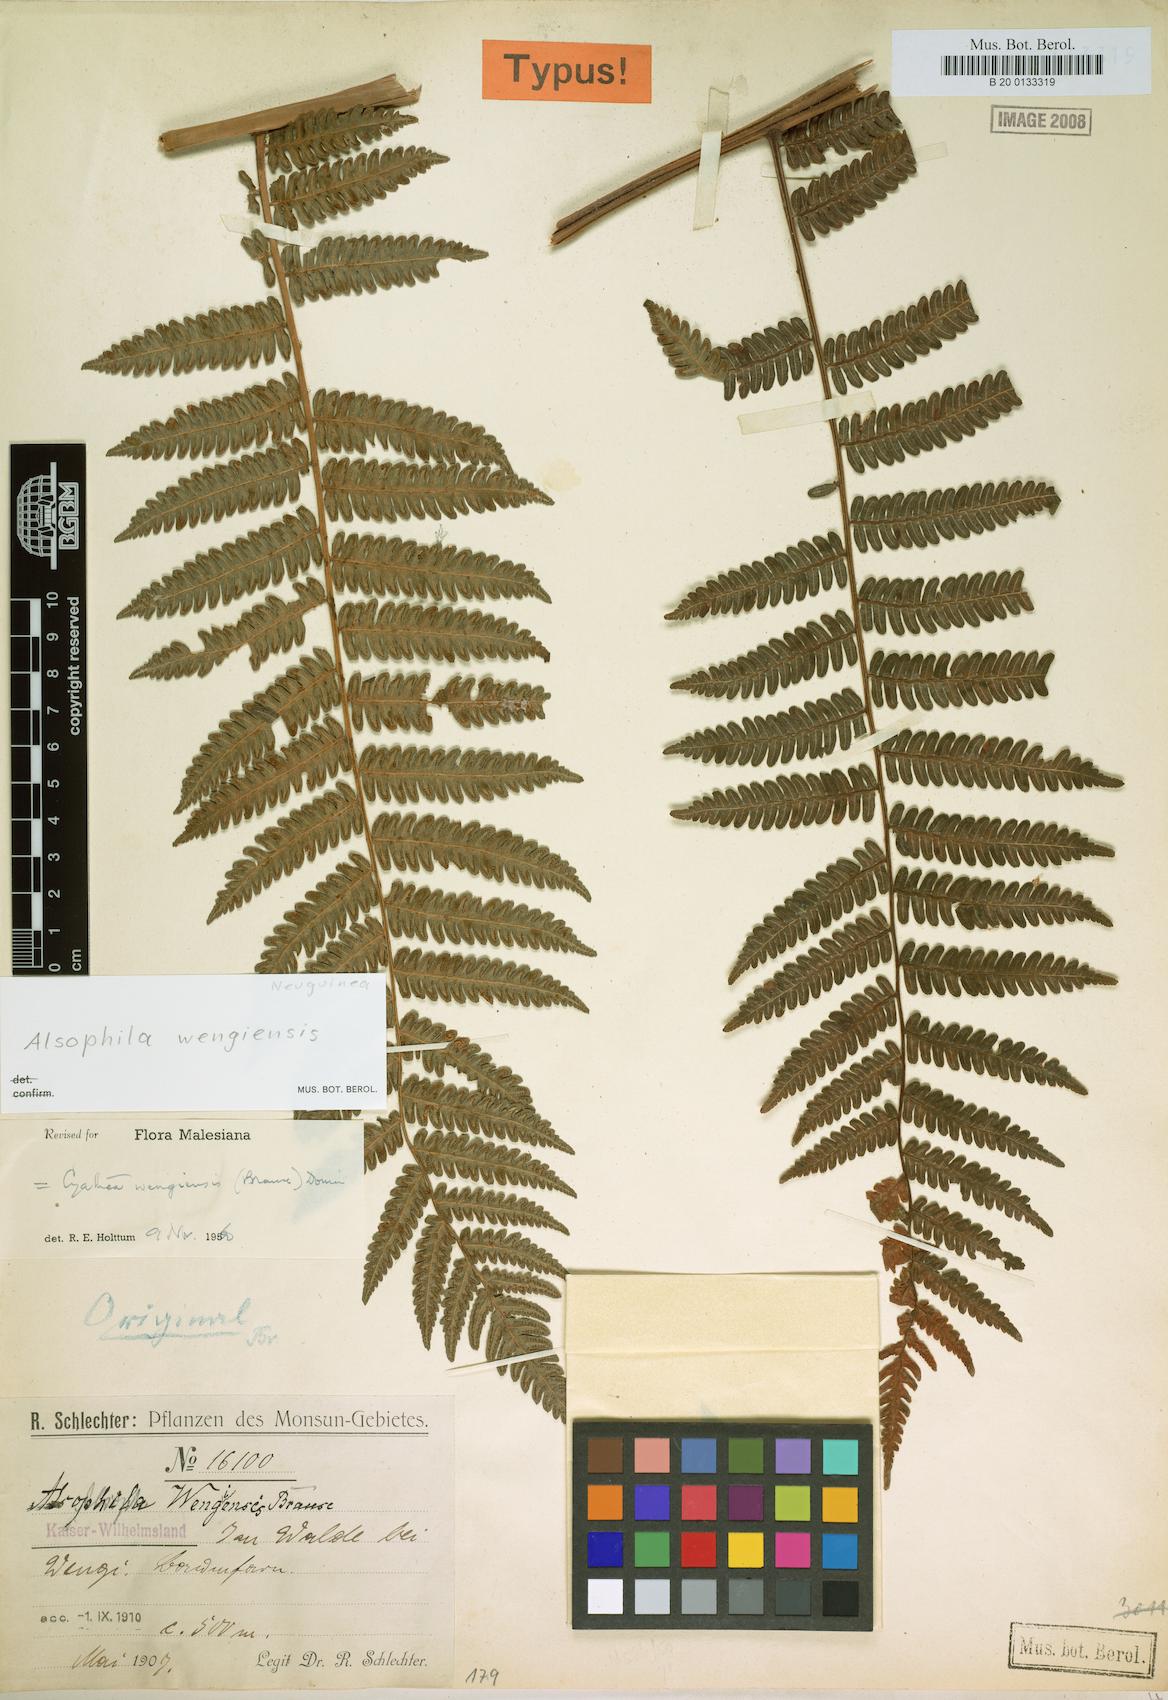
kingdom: Plantae
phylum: Tracheophyta
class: Polypodiopsida
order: Cyatheales
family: Cyatheaceae
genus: Alsophila
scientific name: Alsophila wengiensis
